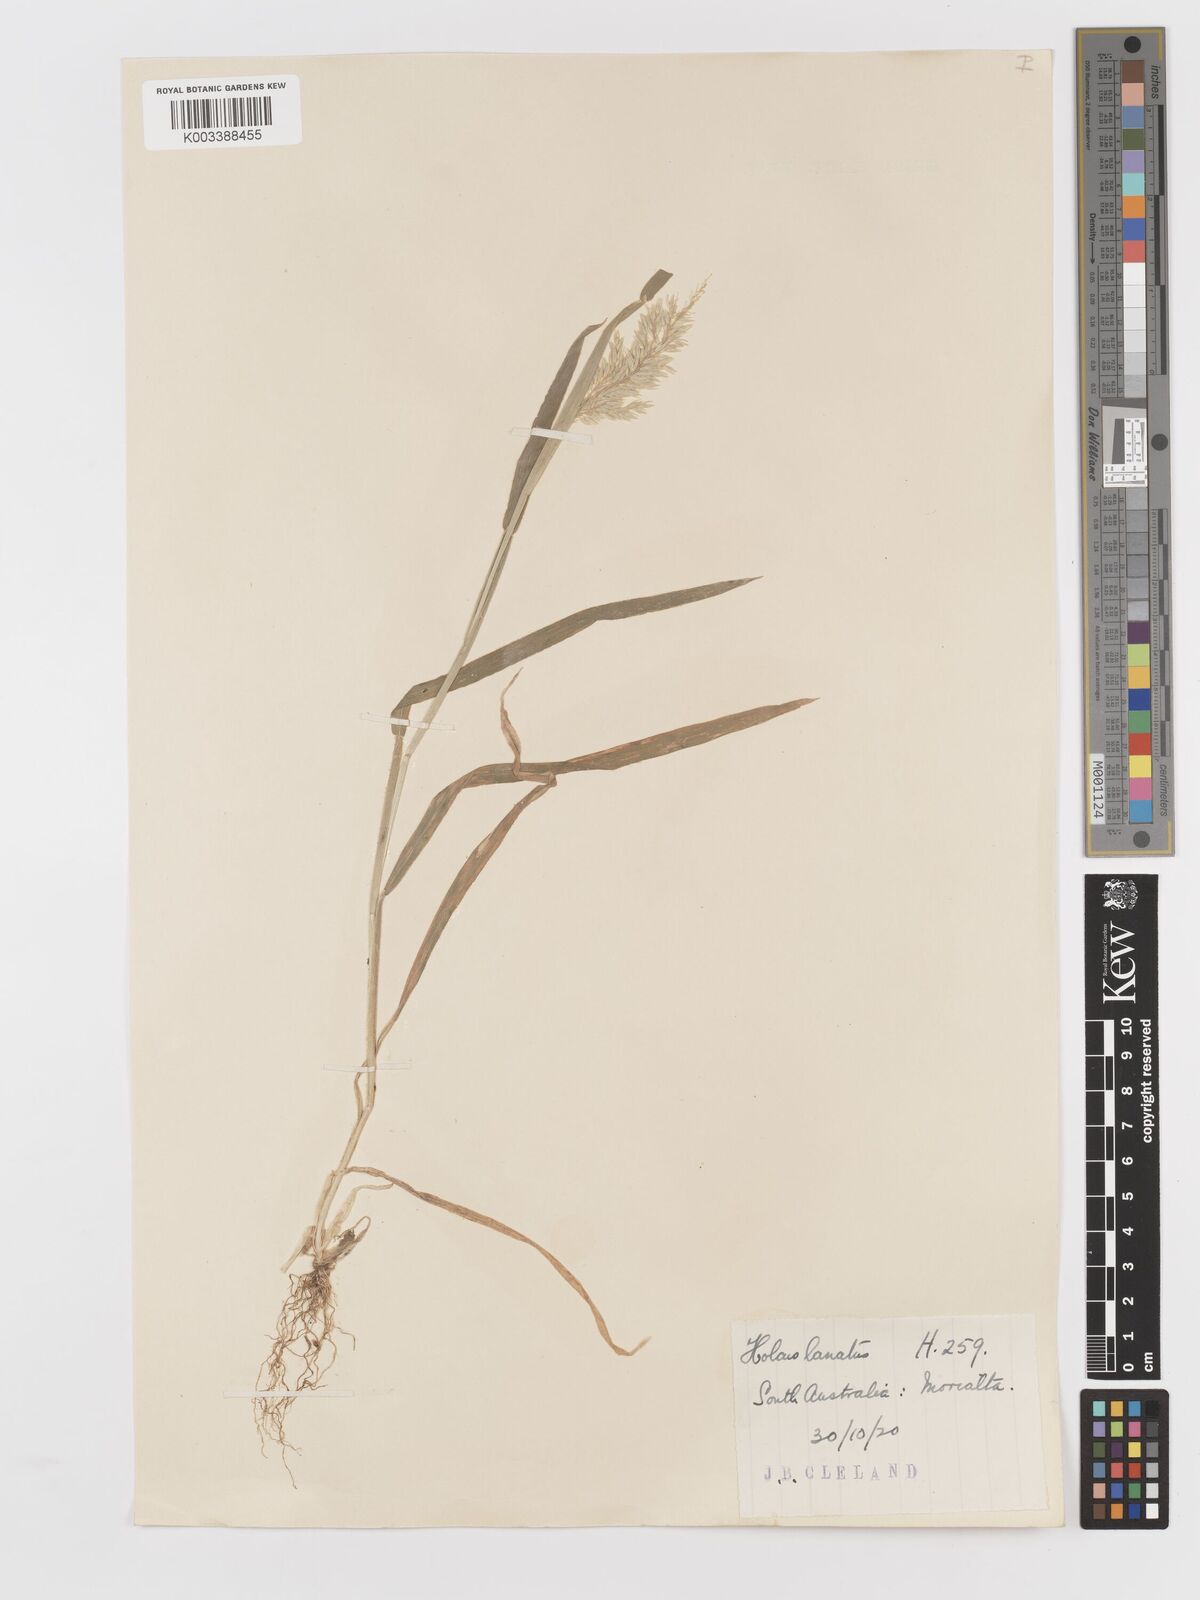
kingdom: Plantae
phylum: Tracheophyta
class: Liliopsida
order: Poales
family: Poaceae
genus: Holcus
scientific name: Holcus lanatus
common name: Yorkshire-fog
